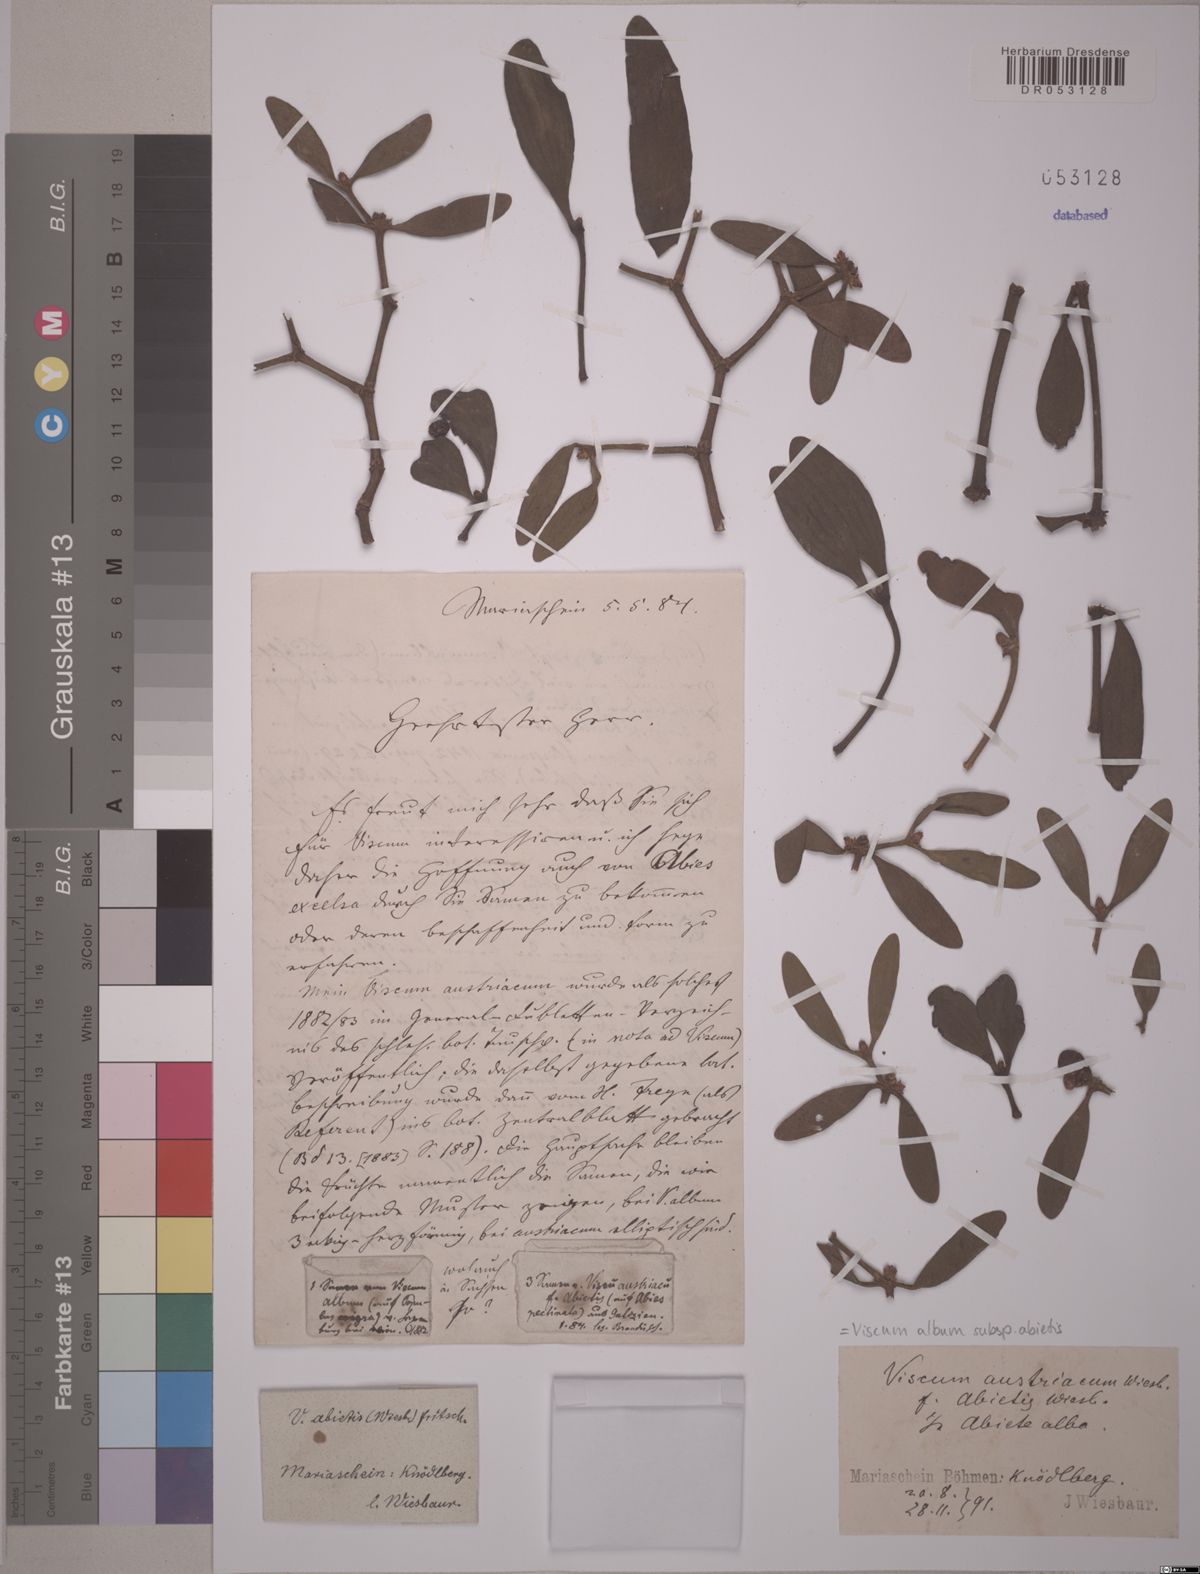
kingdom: Plantae
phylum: Tracheophyta
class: Magnoliopsida
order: Santalales
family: Viscaceae
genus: Viscum
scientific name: Viscum album
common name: Mistletoe
